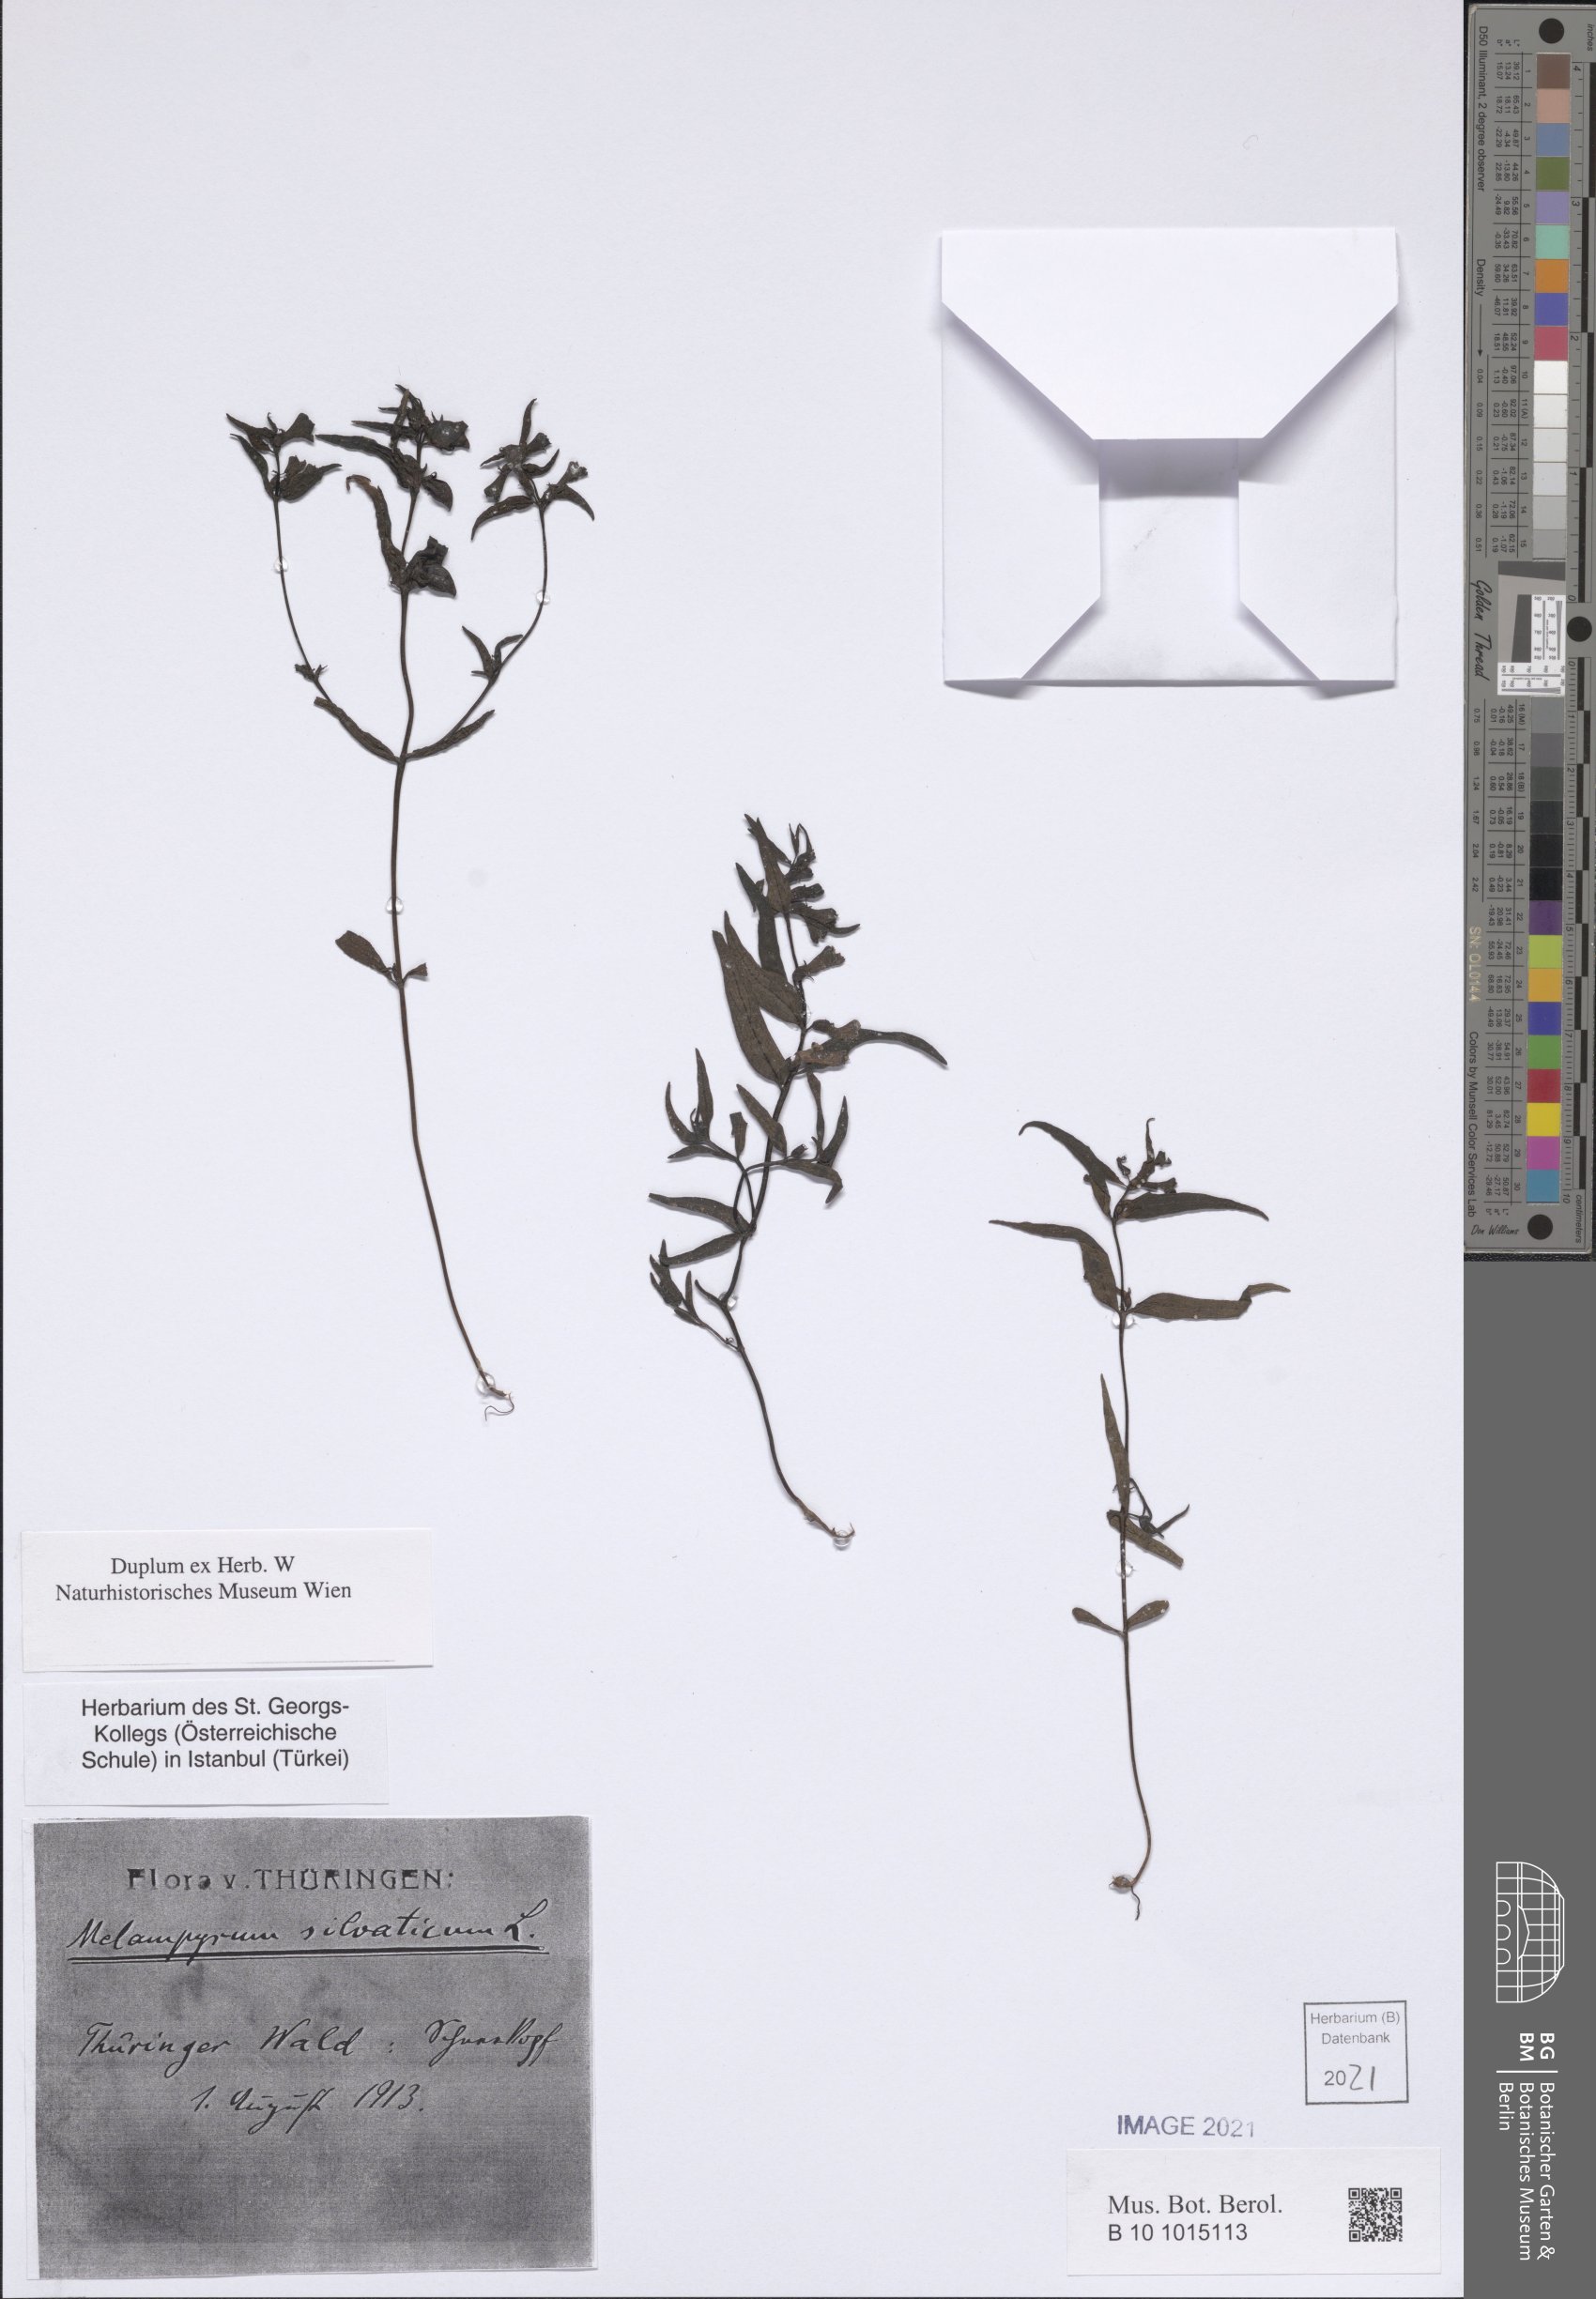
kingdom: Plantae
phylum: Tracheophyta
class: Magnoliopsida
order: Lamiales
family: Orobanchaceae
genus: Melampyrum
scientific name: Melampyrum sylvaticum
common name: Small cow-wheat
